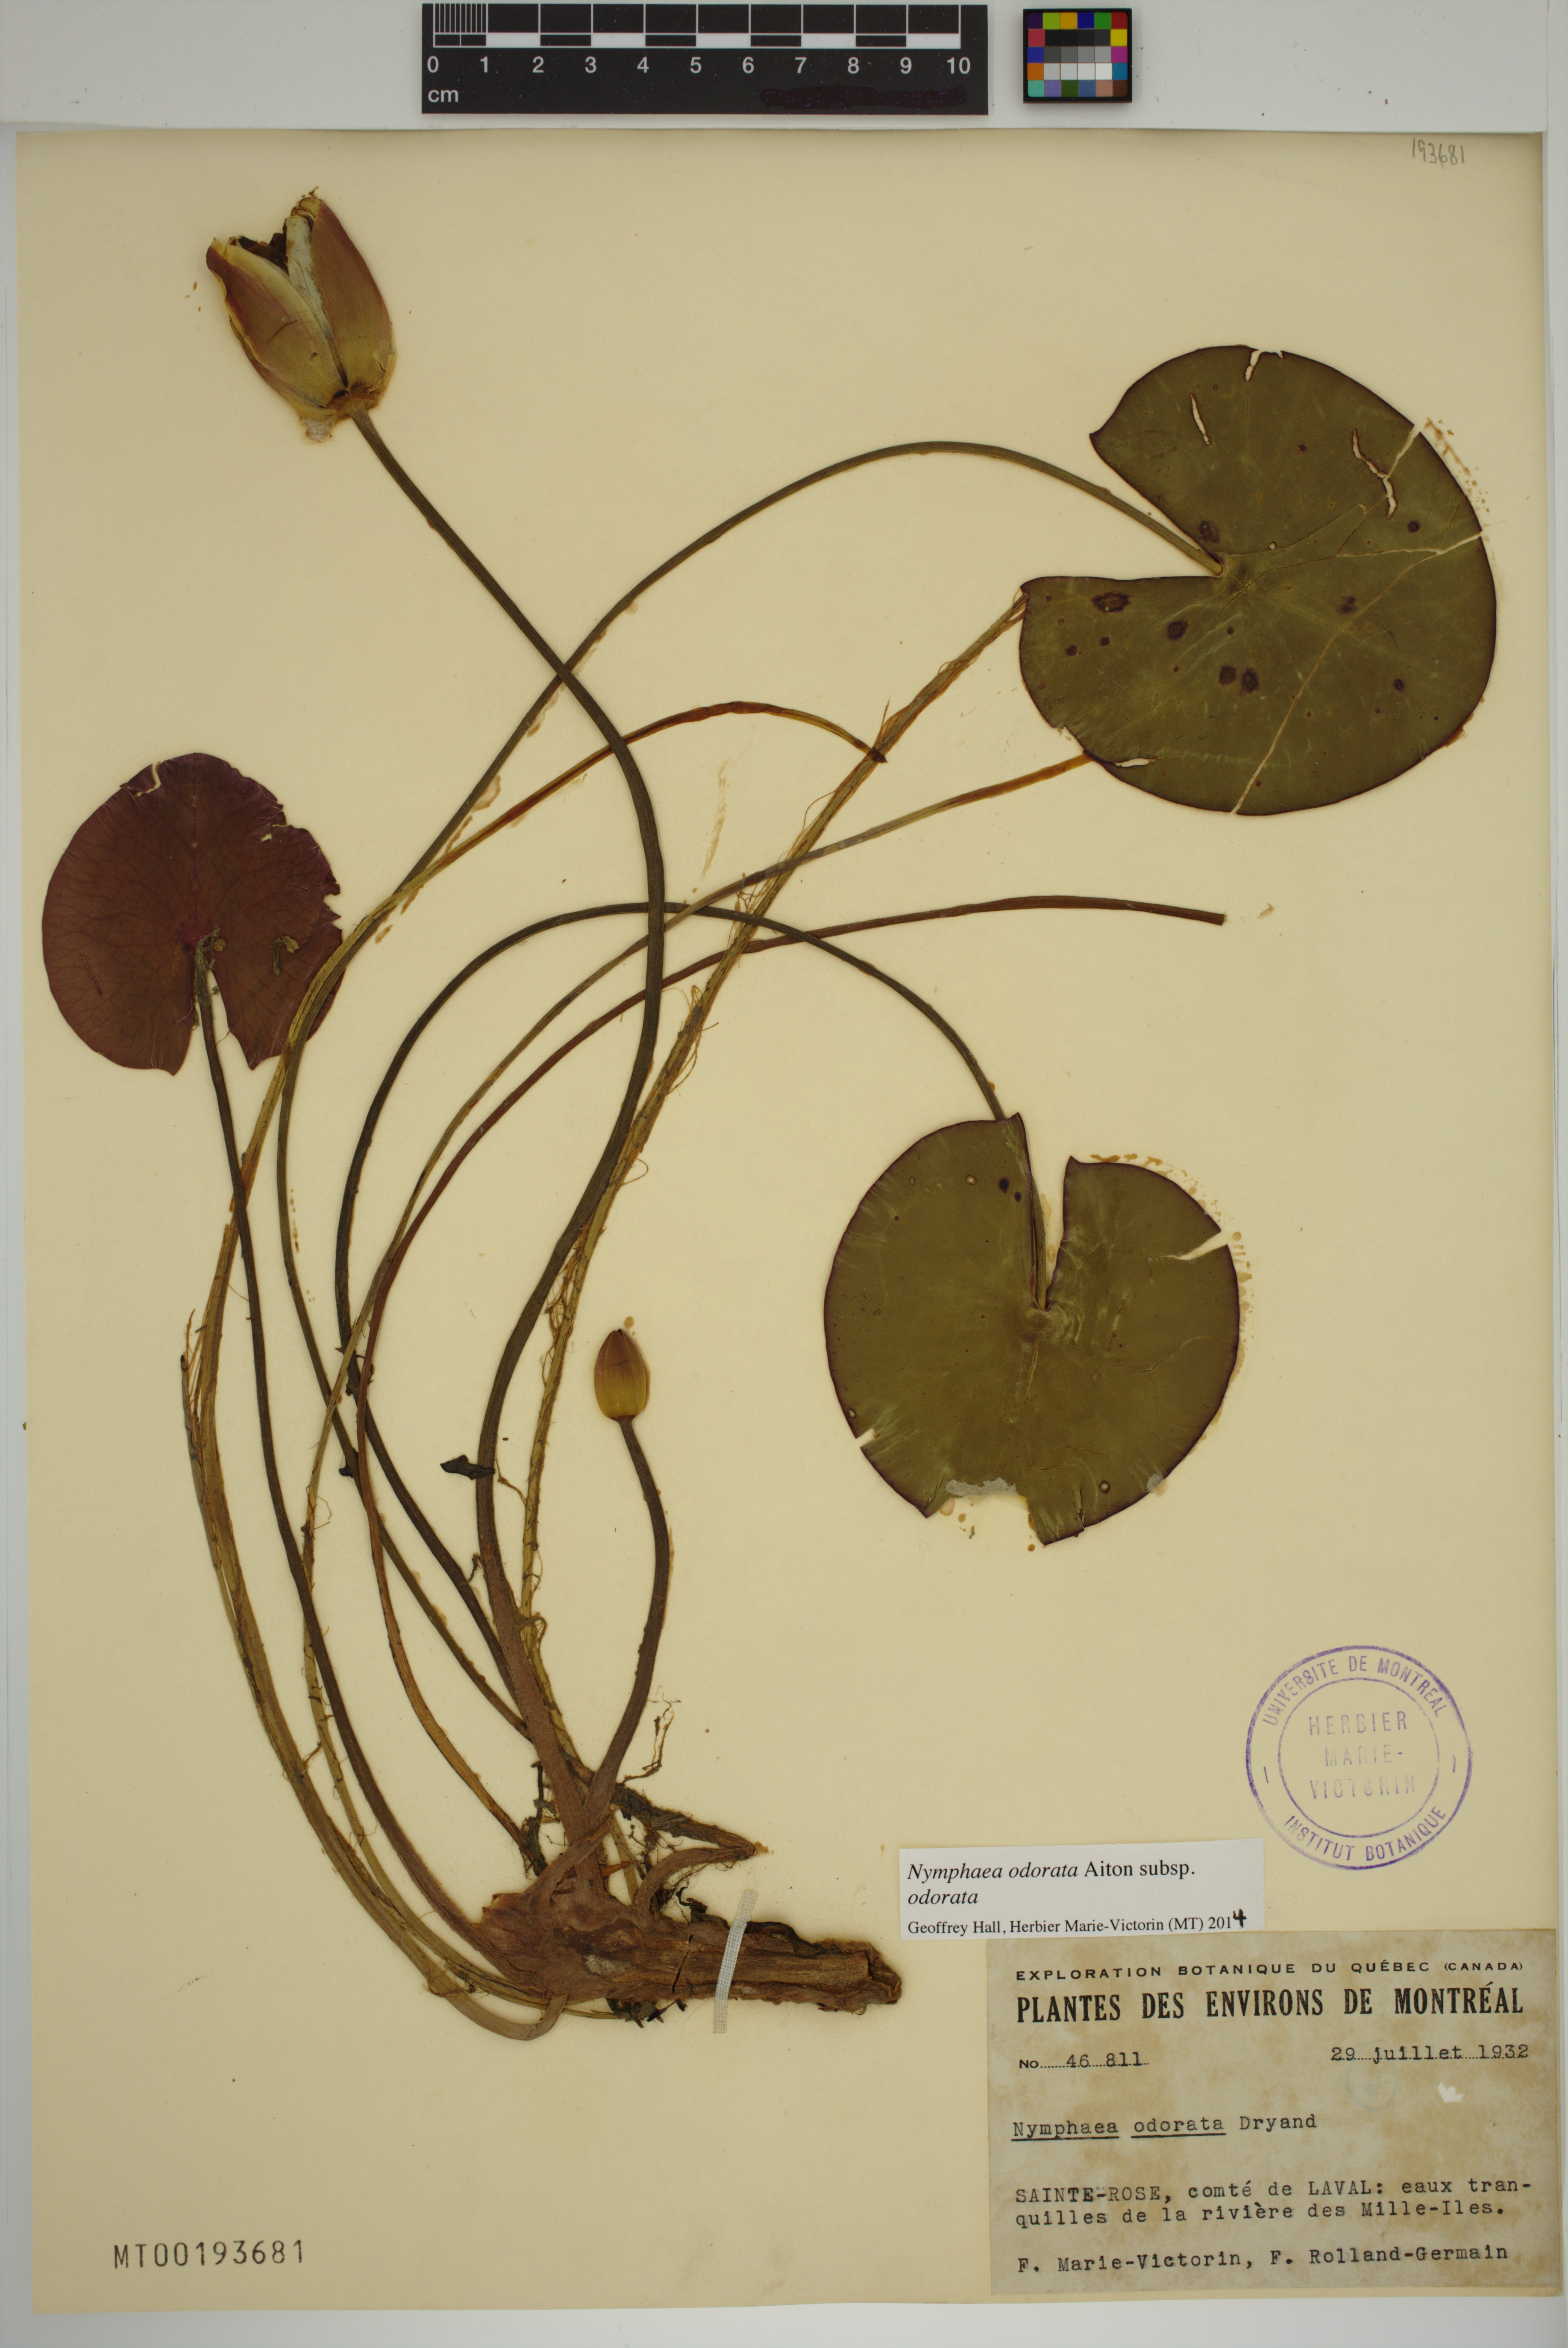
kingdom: Plantae
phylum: Tracheophyta
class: Magnoliopsida
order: Nymphaeales
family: Nymphaeaceae
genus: Nymphaea
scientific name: Nymphaea odorata
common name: Fragrant water-lily
